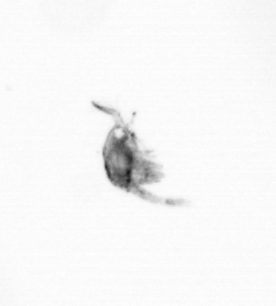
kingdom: Animalia
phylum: Arthropoda
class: Copepoda
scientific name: Copepoda
